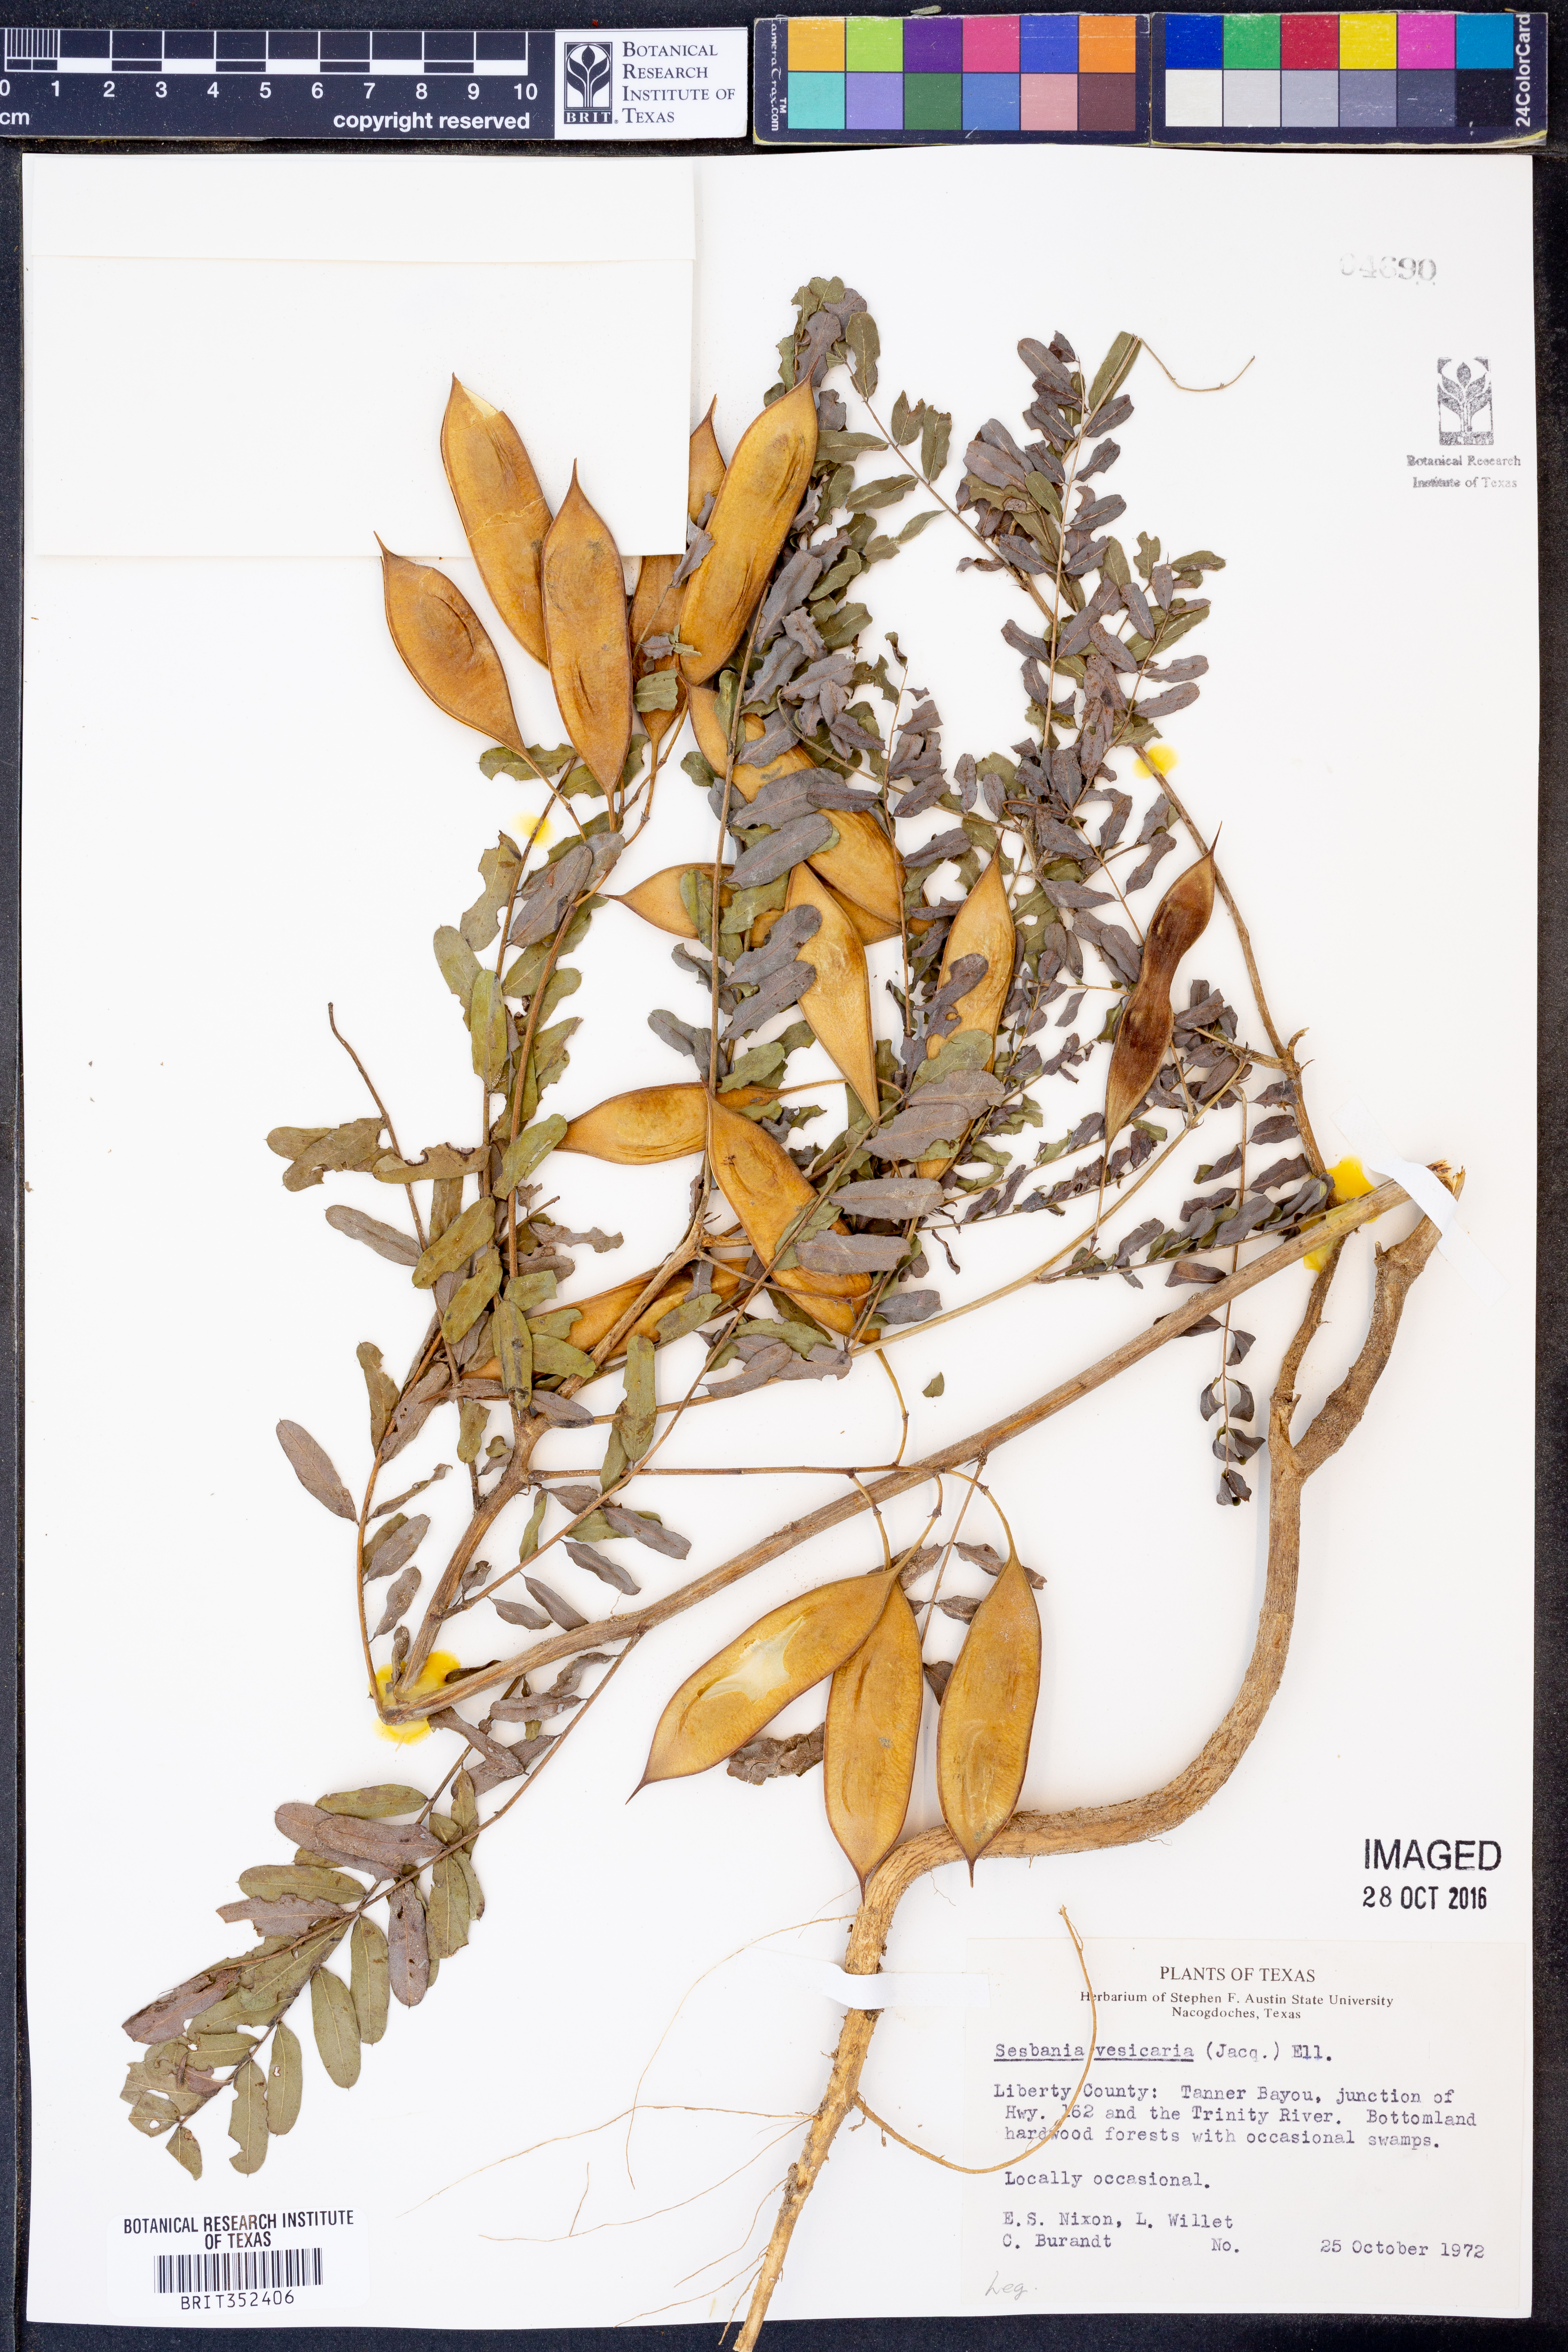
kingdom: Plantae
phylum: Tracheophyta
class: Magnoliopsida
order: Fabales
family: Fabaceae
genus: Sesbania
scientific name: Sesbania vesicaria
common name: Bagpod
